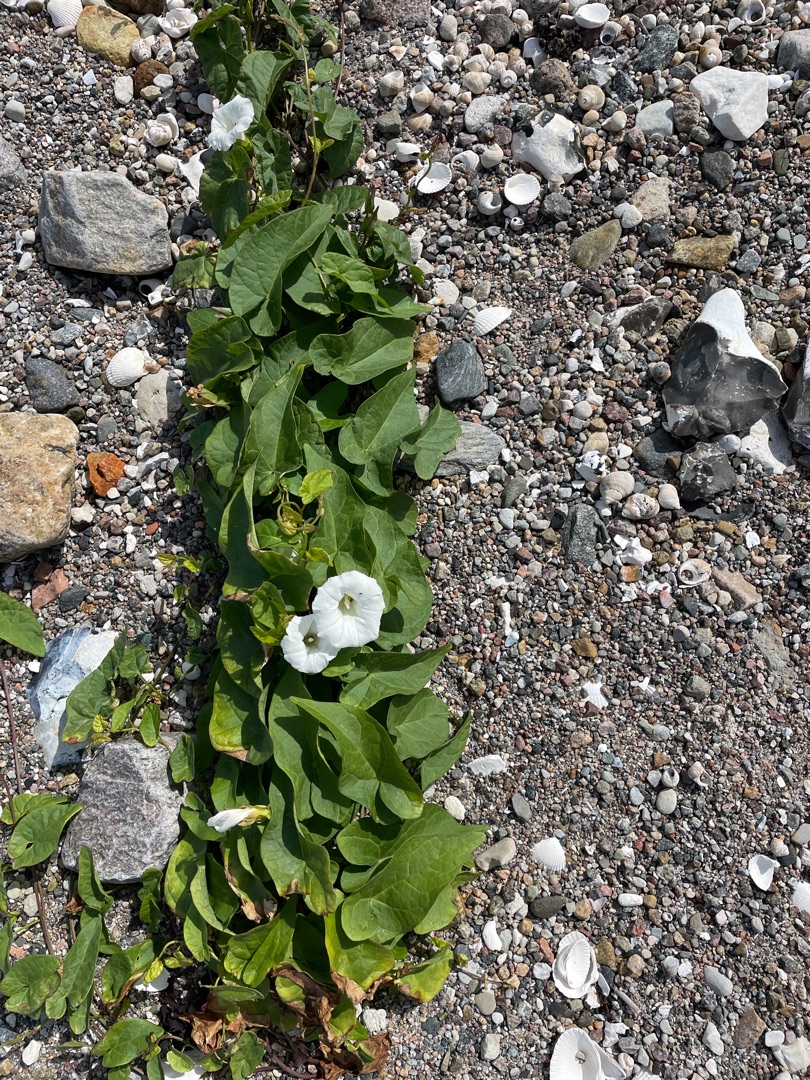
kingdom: Plantae
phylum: Tracheophyta
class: Magnoliopsida
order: Solanales
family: Convolvulaceae
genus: Calystegia
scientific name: Calystegia sepium
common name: Gærde-snerle
